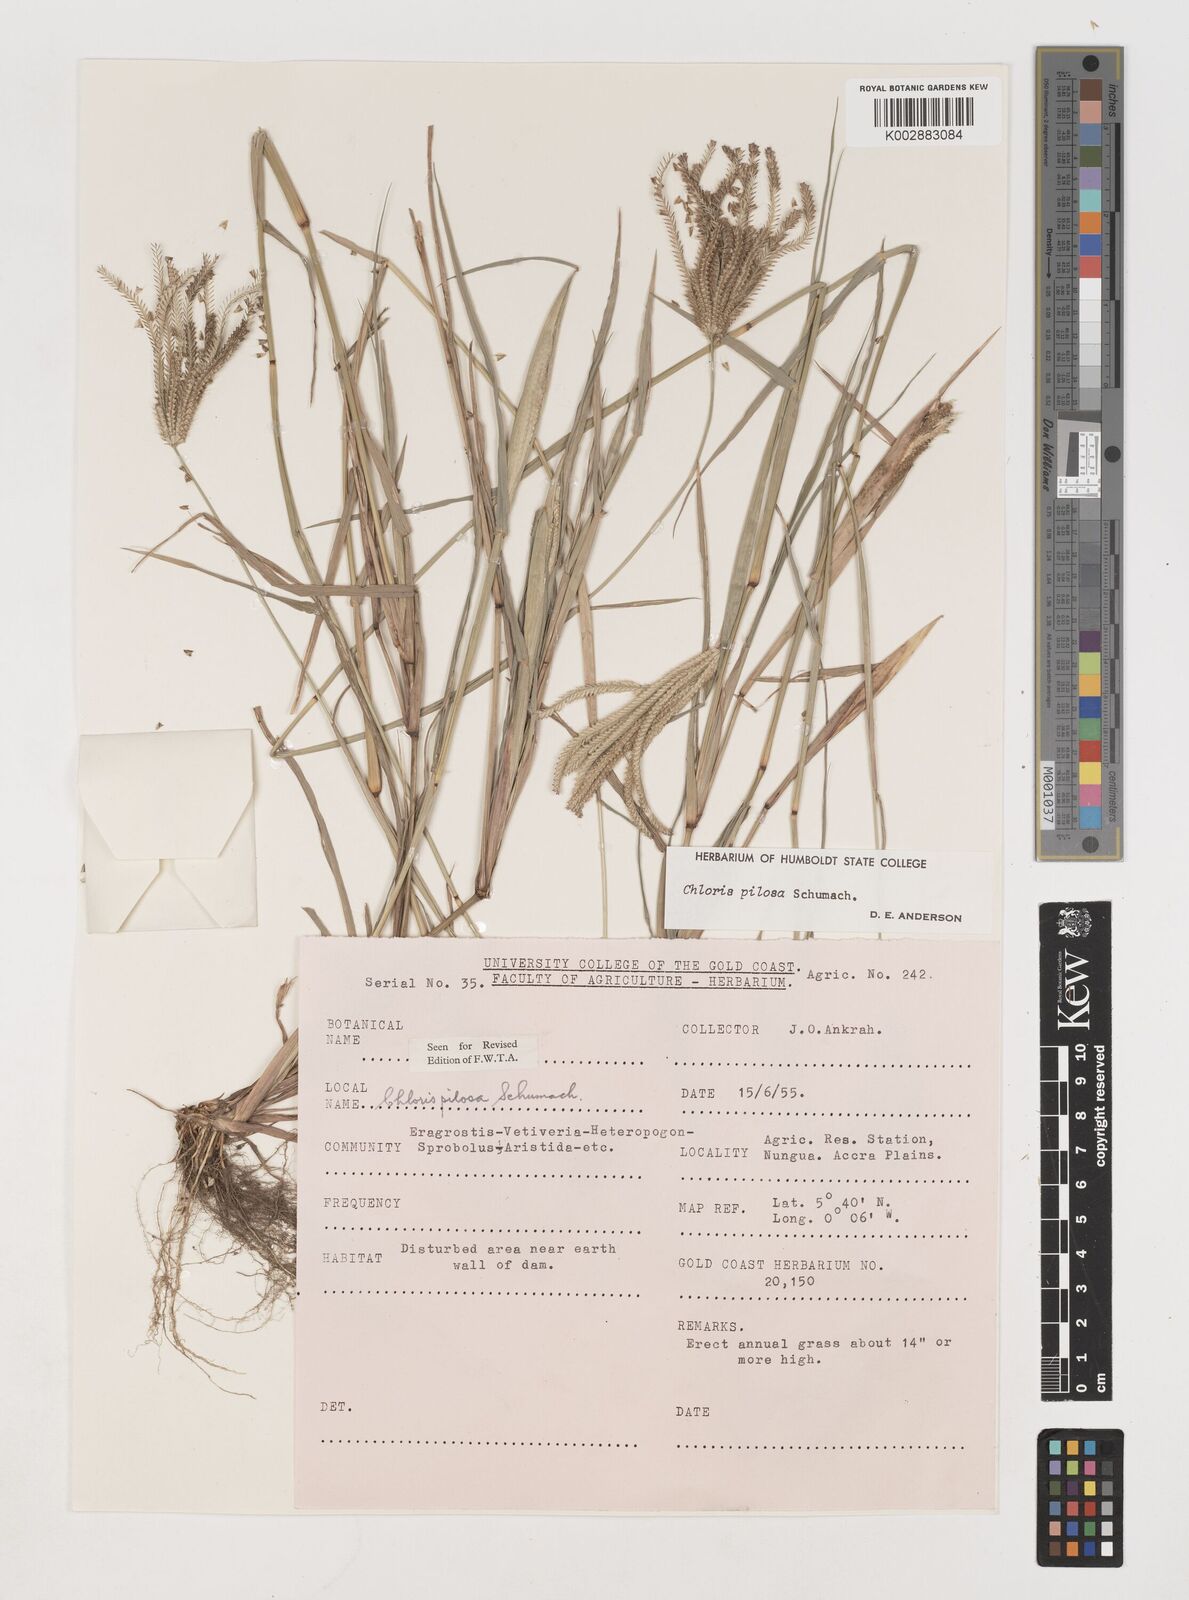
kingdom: Plantae
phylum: Tracheophyta
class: Liliopsida
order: Poales
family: Poaceae
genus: Chloris
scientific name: Chloris pilosa
